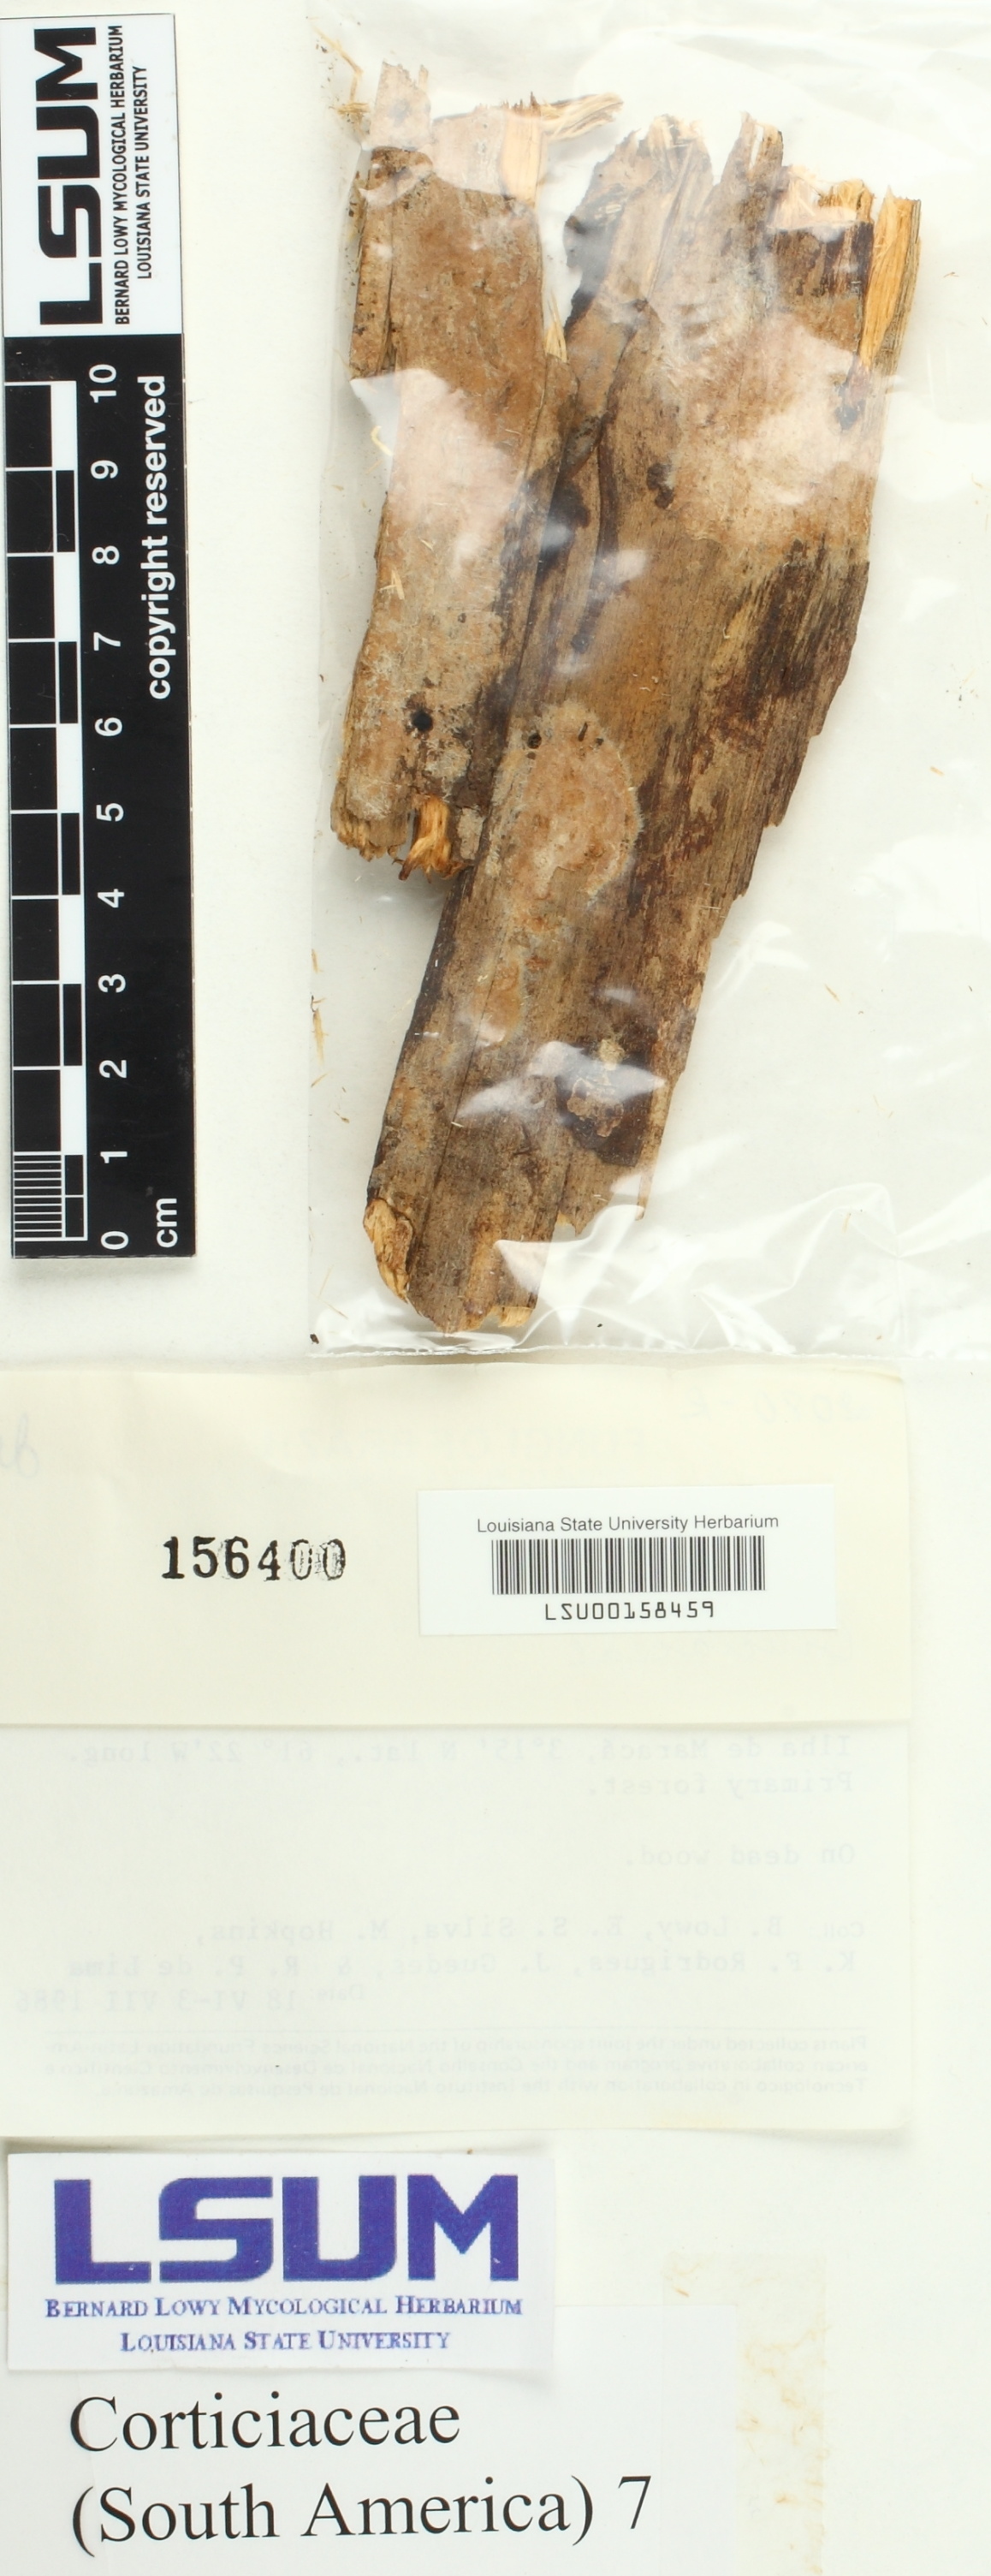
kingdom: Fungi
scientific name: Fungi
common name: Fungi
